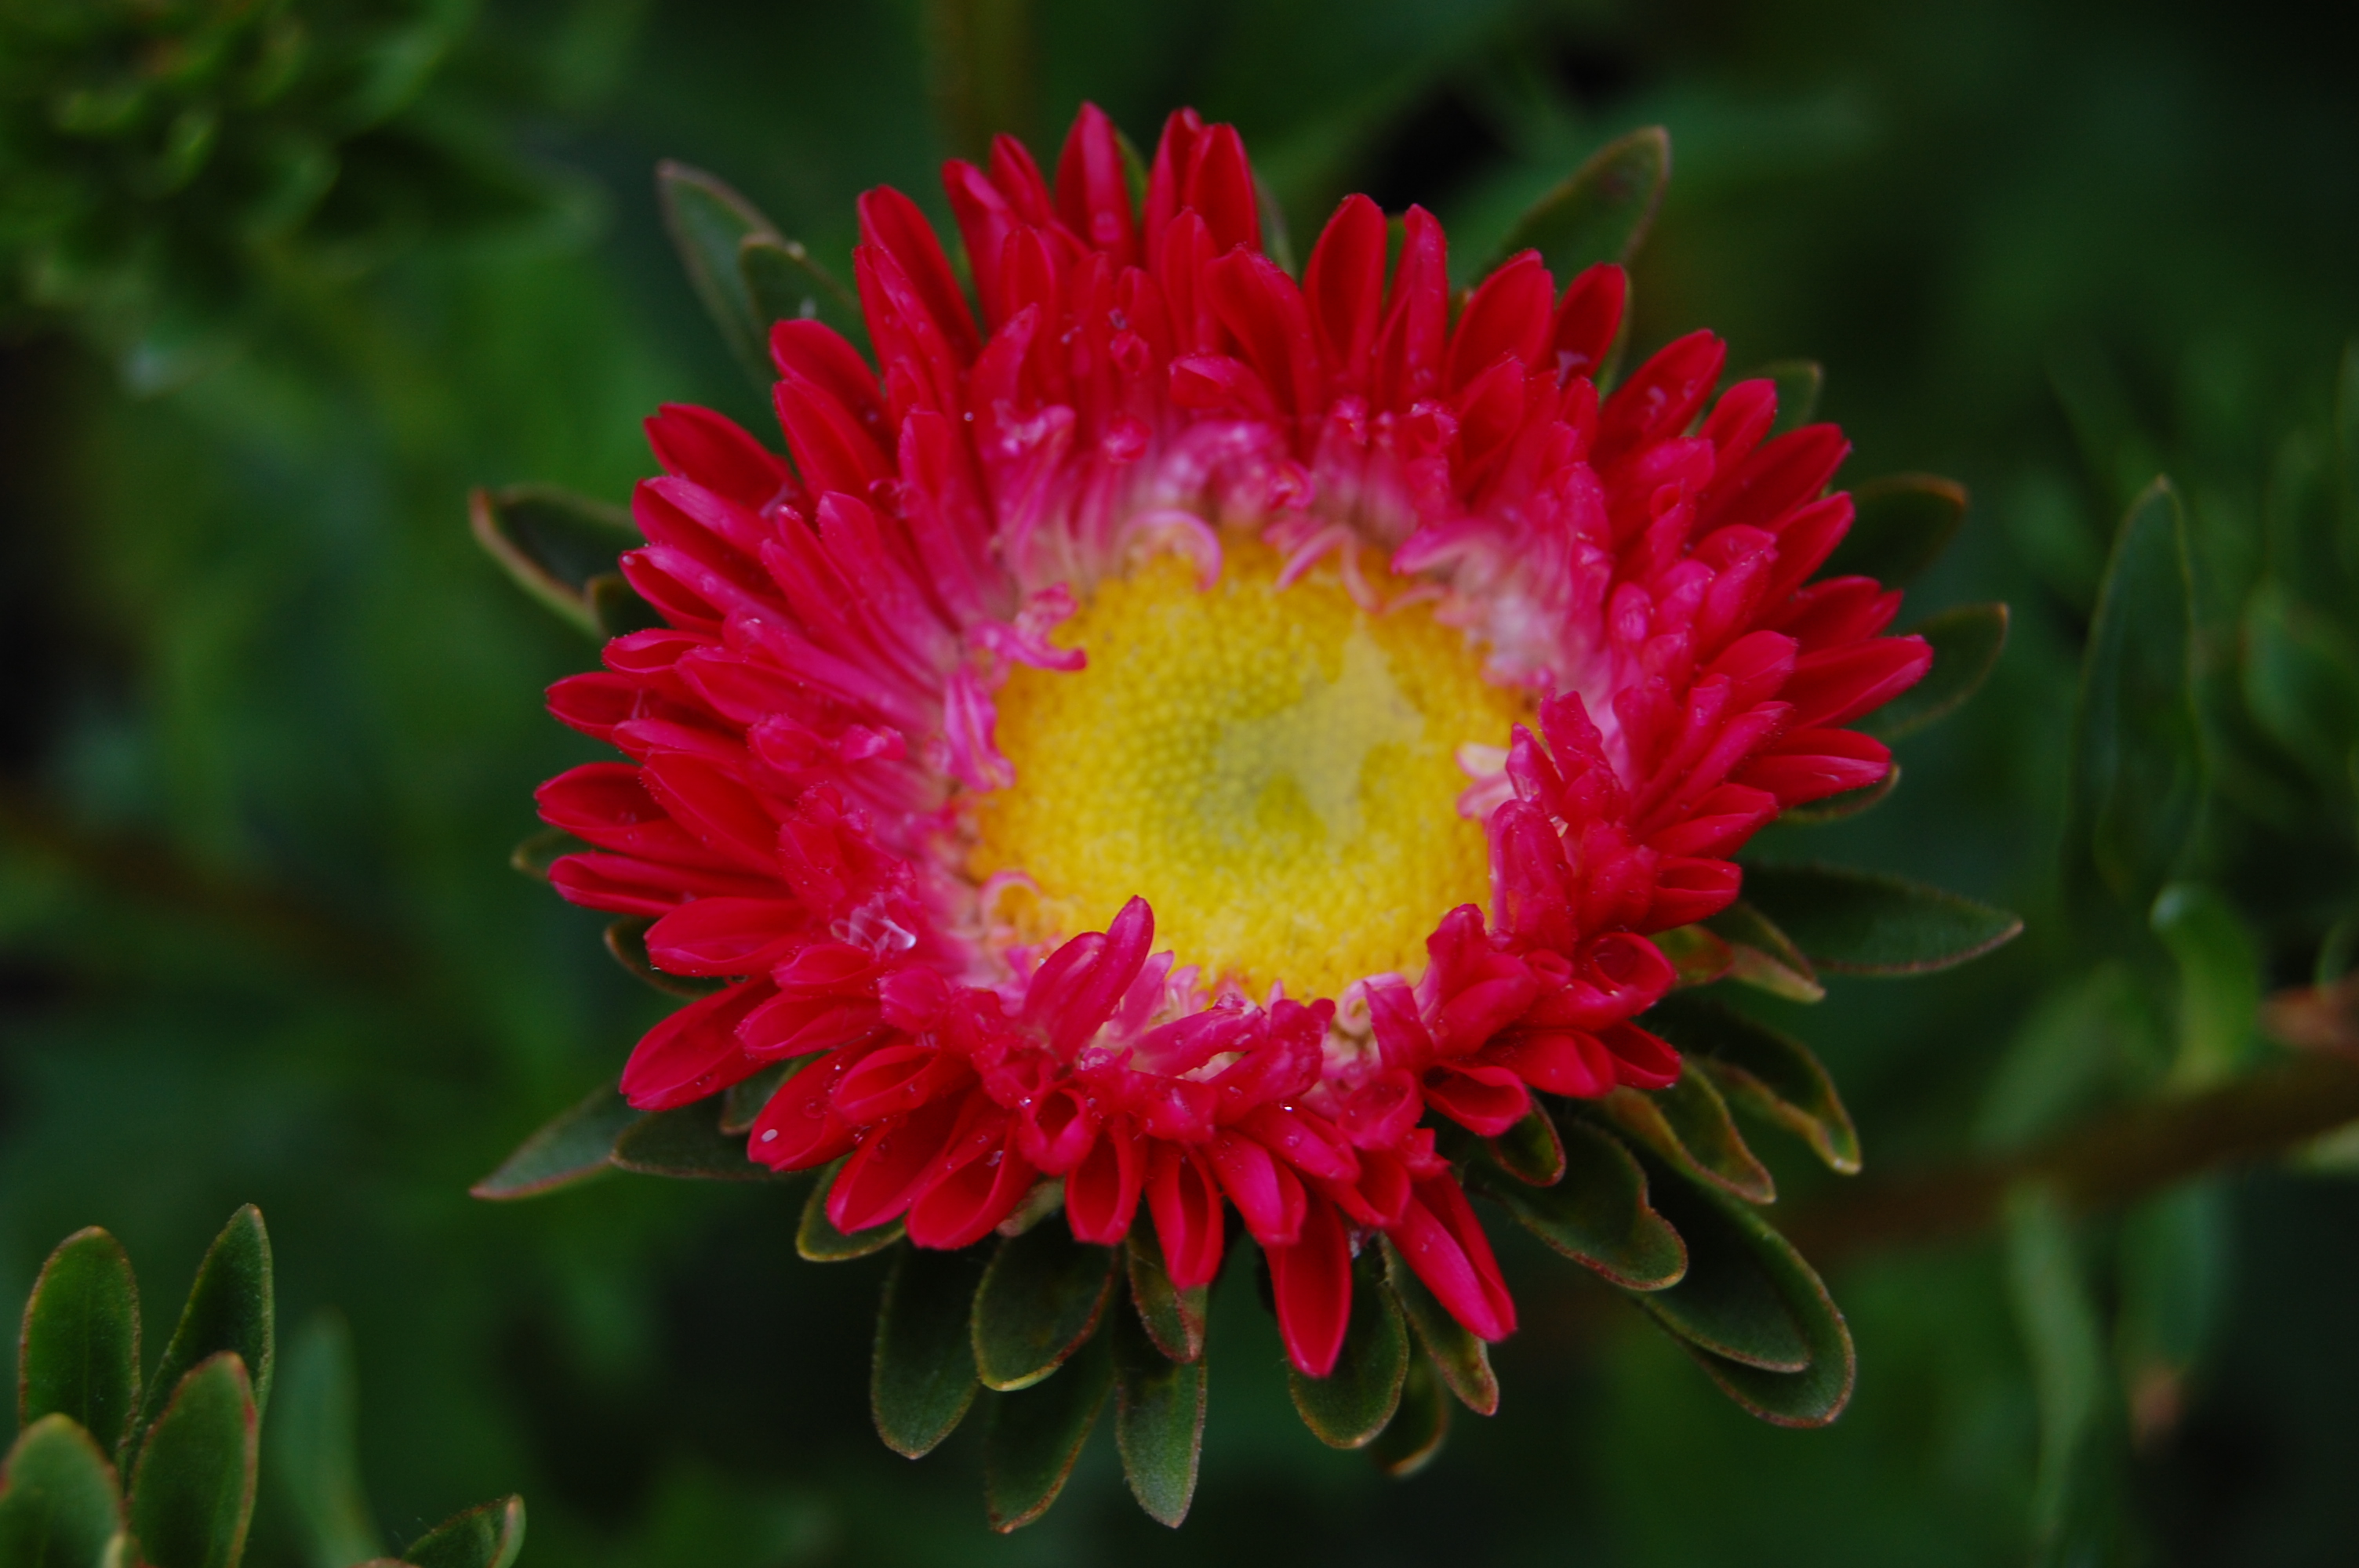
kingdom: Plantae
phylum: Tracheophyta
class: Magnoliopsida
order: Asterales
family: Asteraceae
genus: Callistephus
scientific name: Callistephus chinensis
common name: China aster
